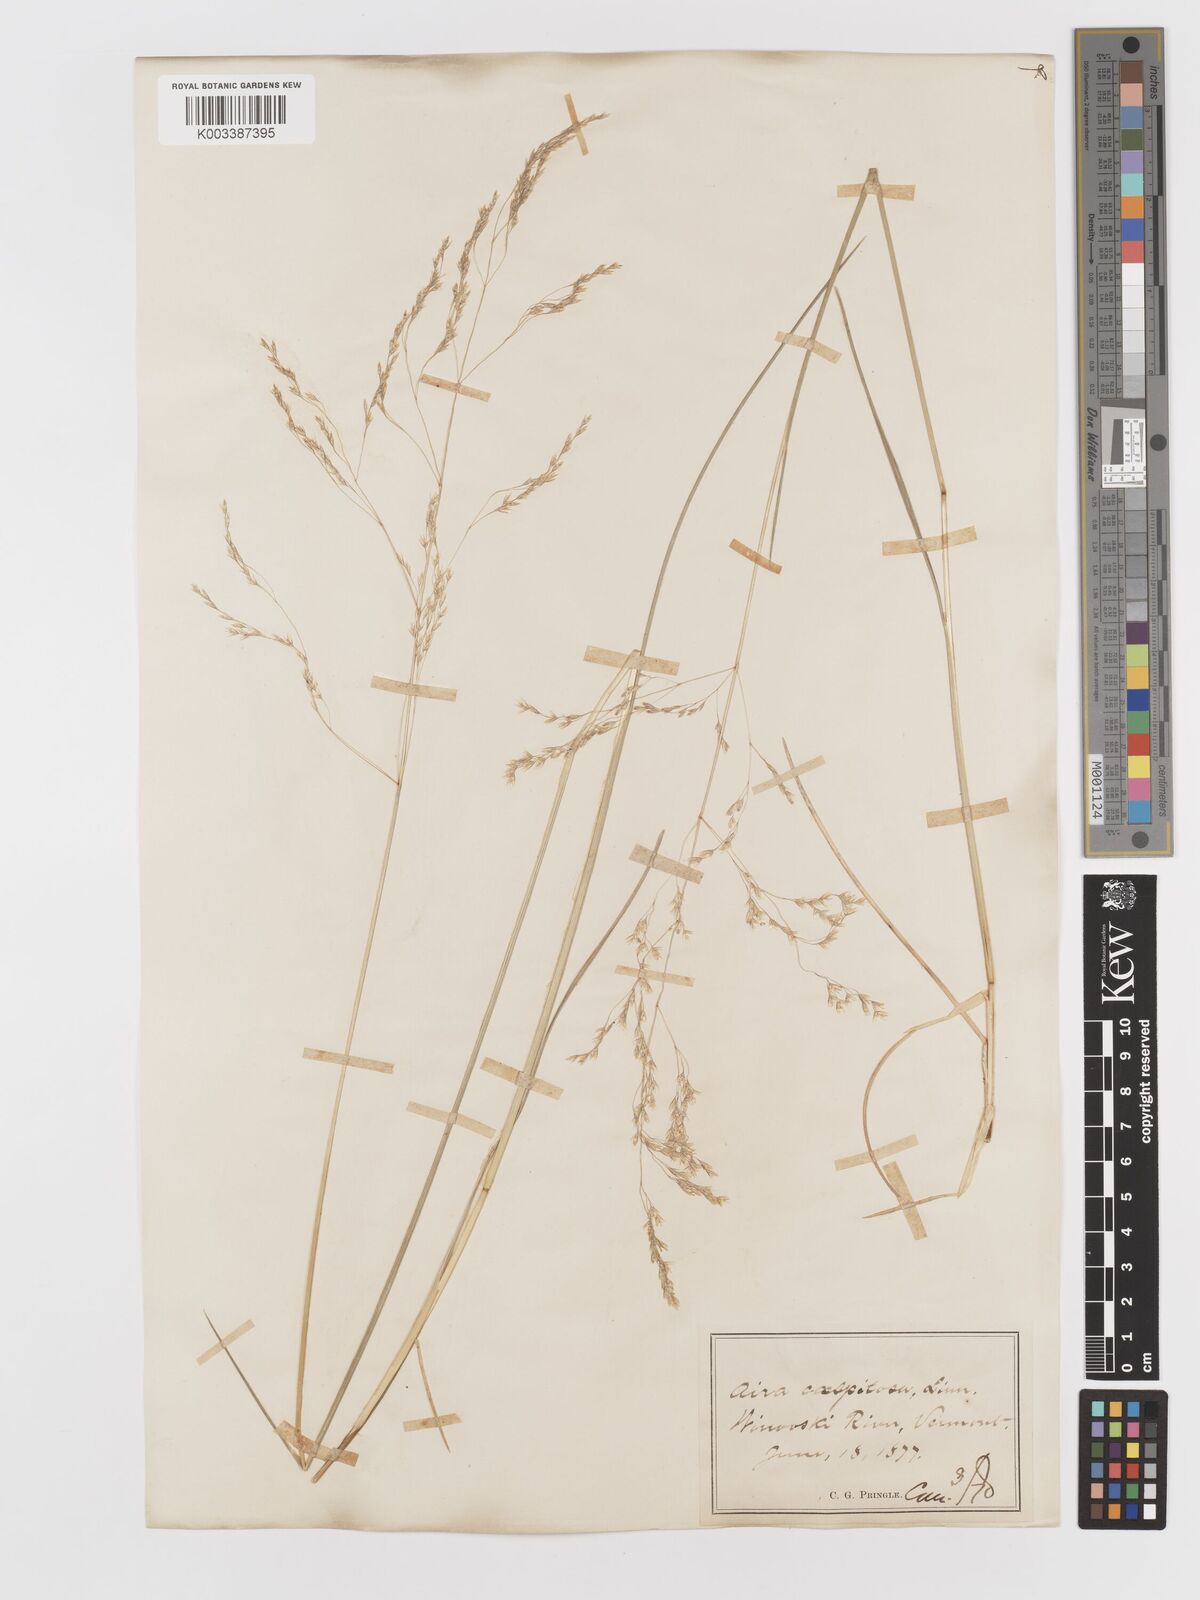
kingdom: Plantae
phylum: Tracheophyta
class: Liliopsida
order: Poales
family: Poaceae
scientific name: Poaceae
